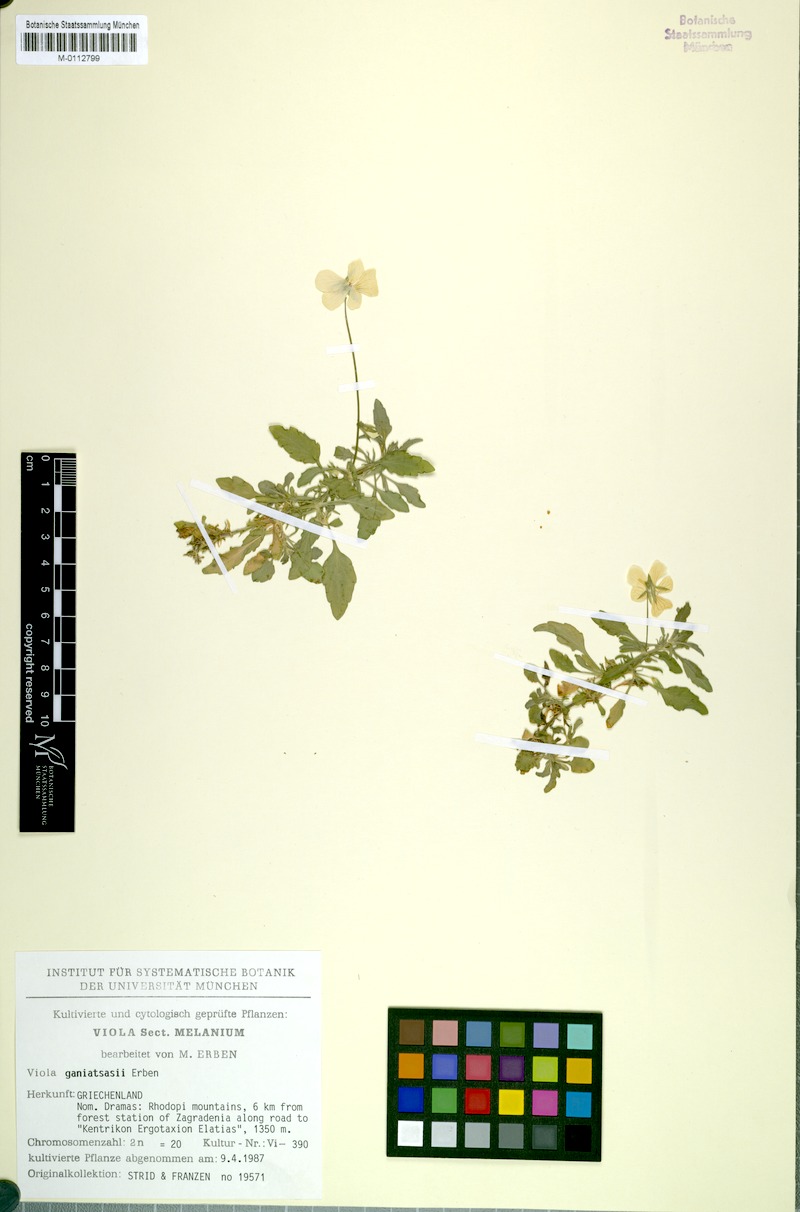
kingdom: Plantae
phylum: Tracheophyta
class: Magnoliopsida
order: Malpighiales
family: Violaceae
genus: Viola
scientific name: Viola ganiatsasii
